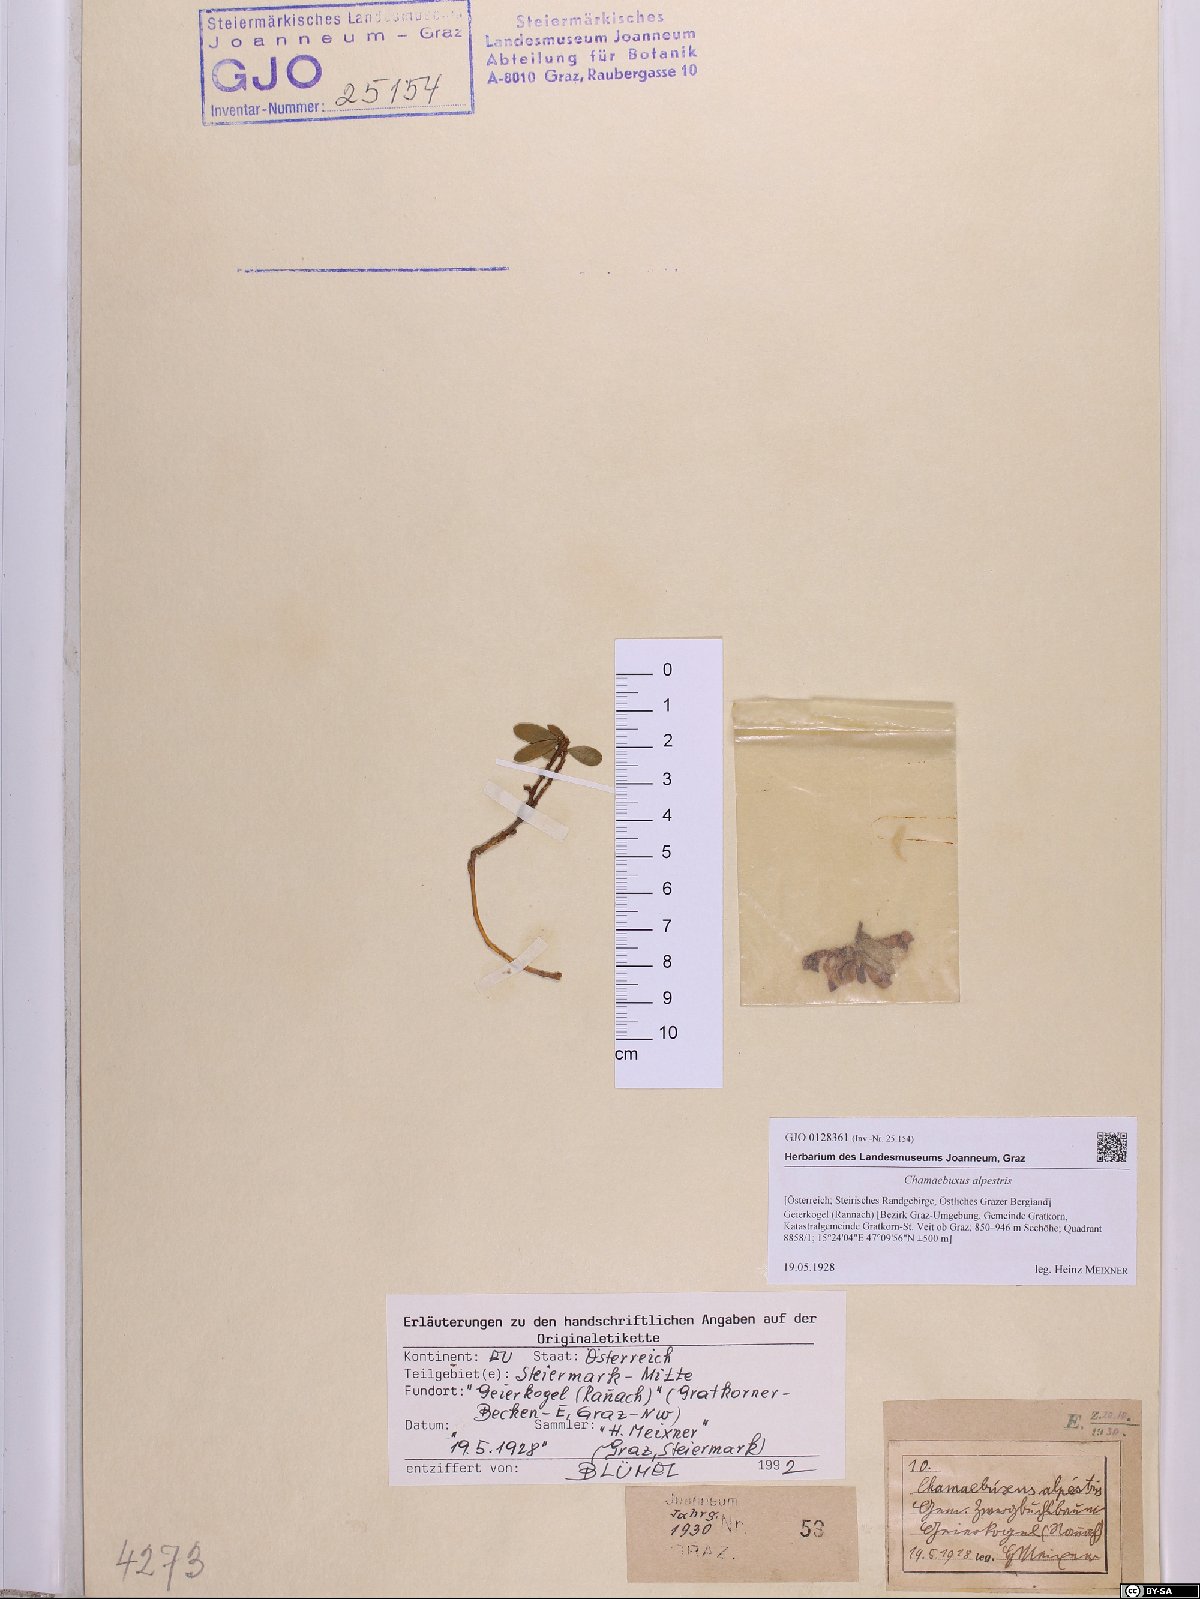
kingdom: Plantae
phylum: Tracheophyta
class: Magnoliopsida
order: Fabales
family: Polygalaceae
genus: Polygaloides
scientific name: Polygaloides chamaebuxus
